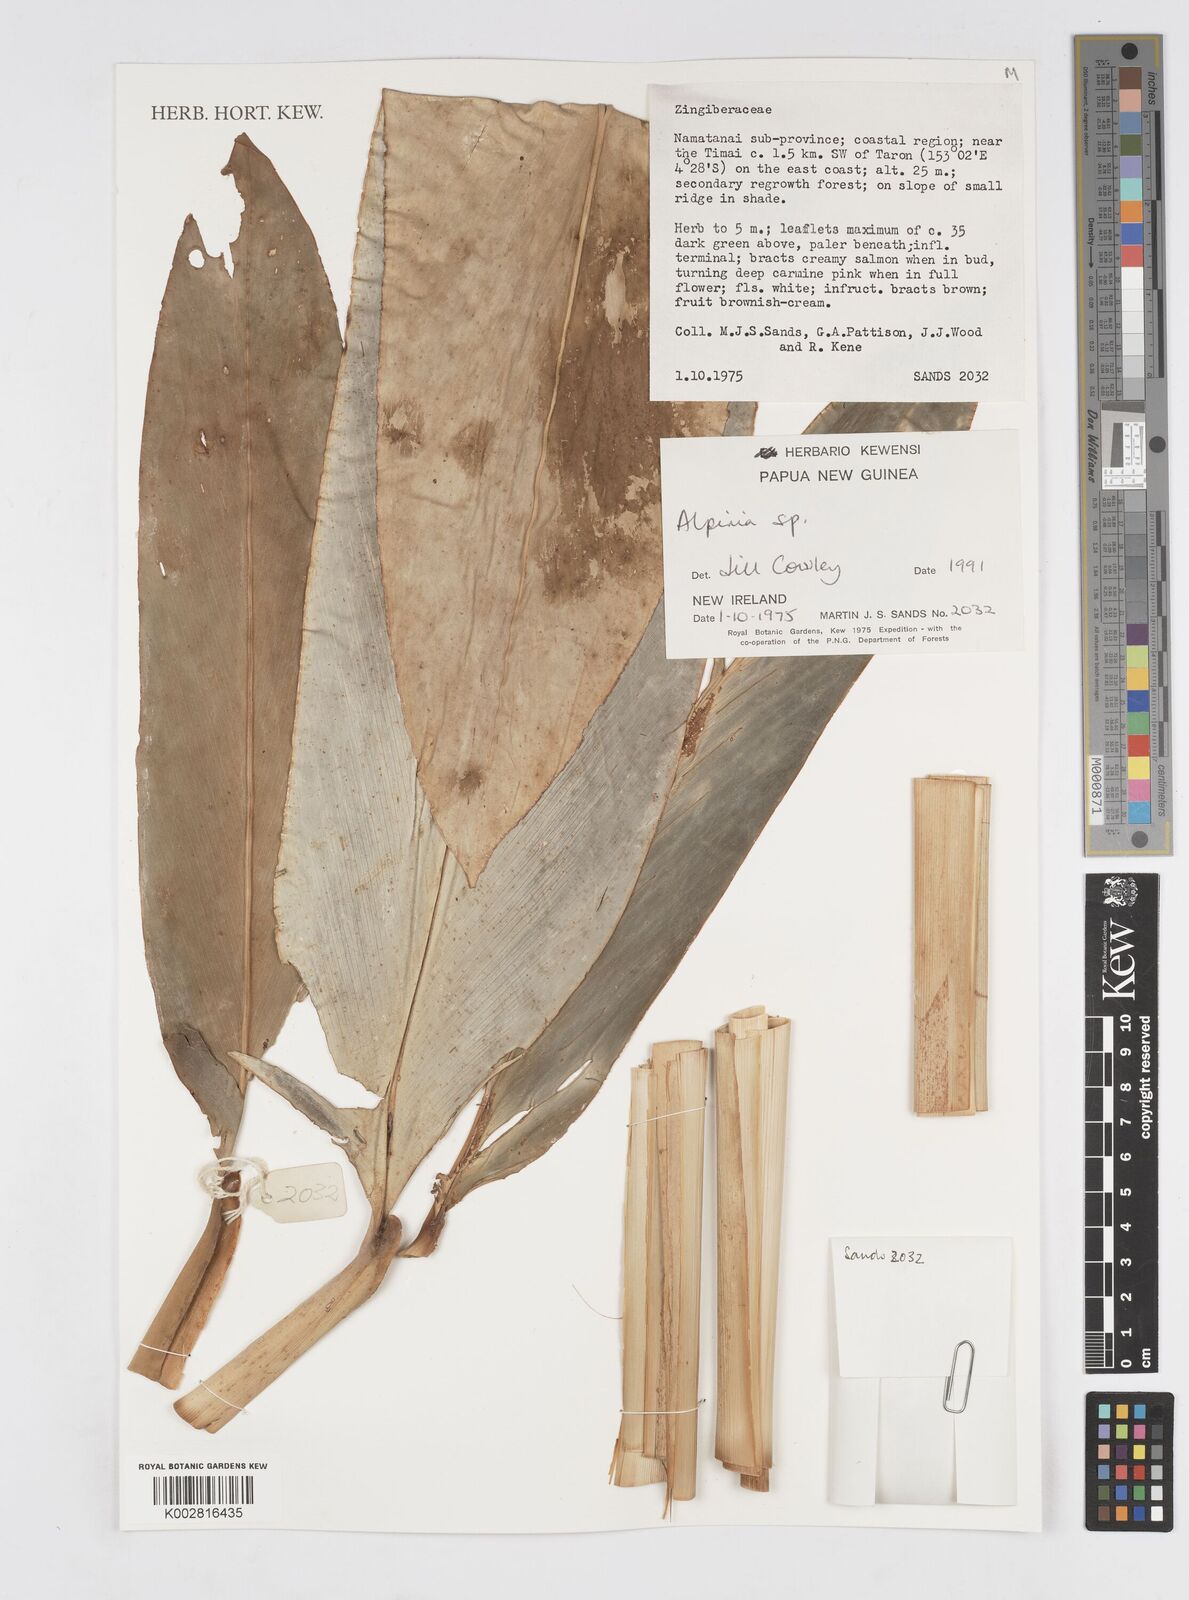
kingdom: Plantae
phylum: Tracheophyta
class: Liliopsida
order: Zingiberales
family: Zingiberaceae
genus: Alpinia
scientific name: Alpinia
